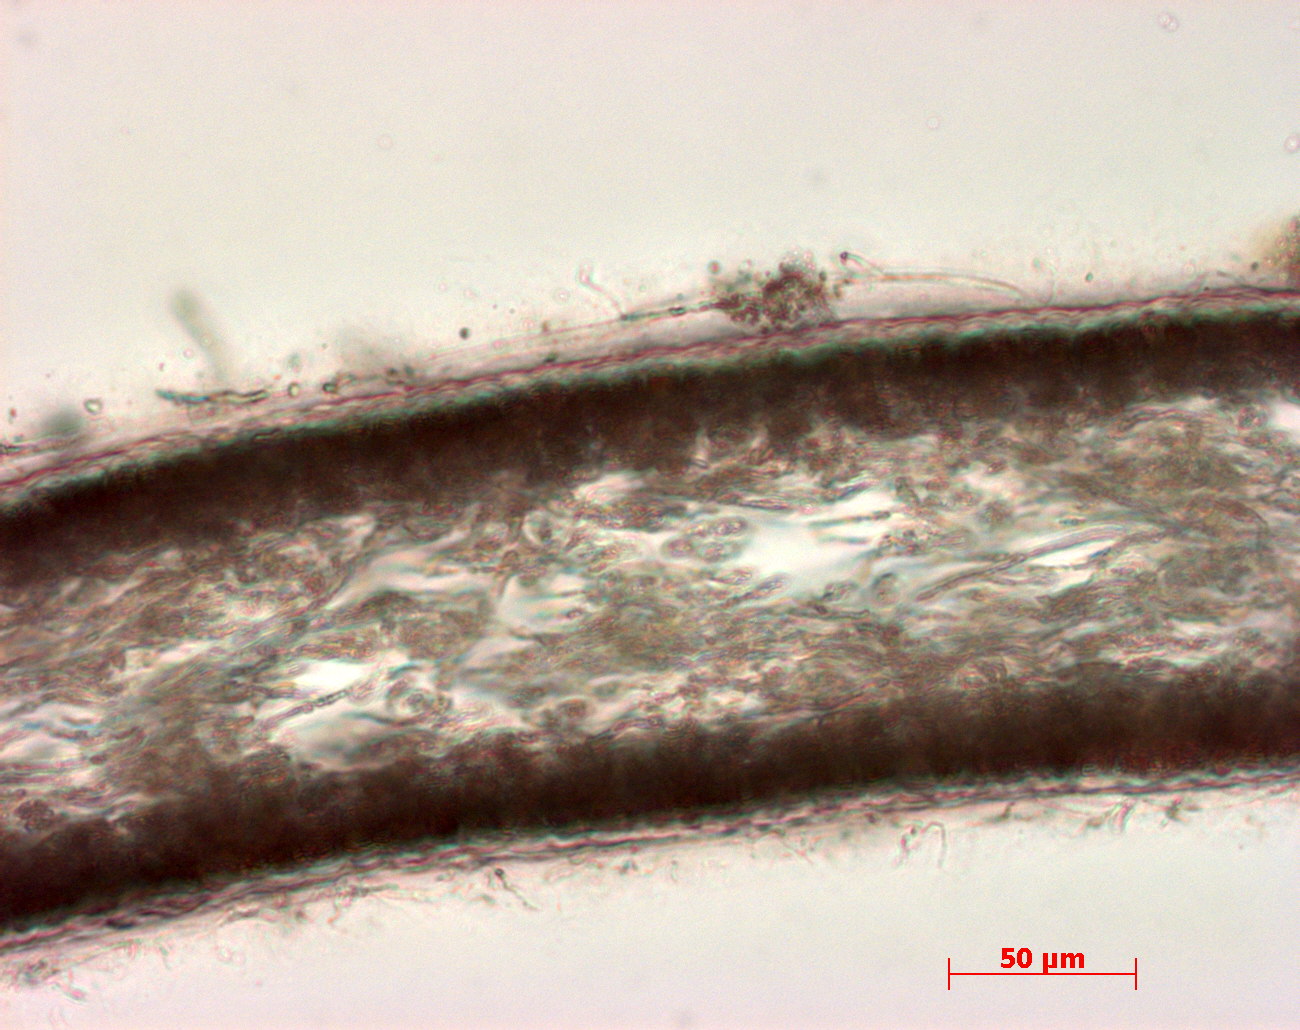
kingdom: Plantae
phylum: Rhodophyta
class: Florideophyceae
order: Halymeniales
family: Halymeniaceae
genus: Cryptonemia
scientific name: Cryptonemia latissima
